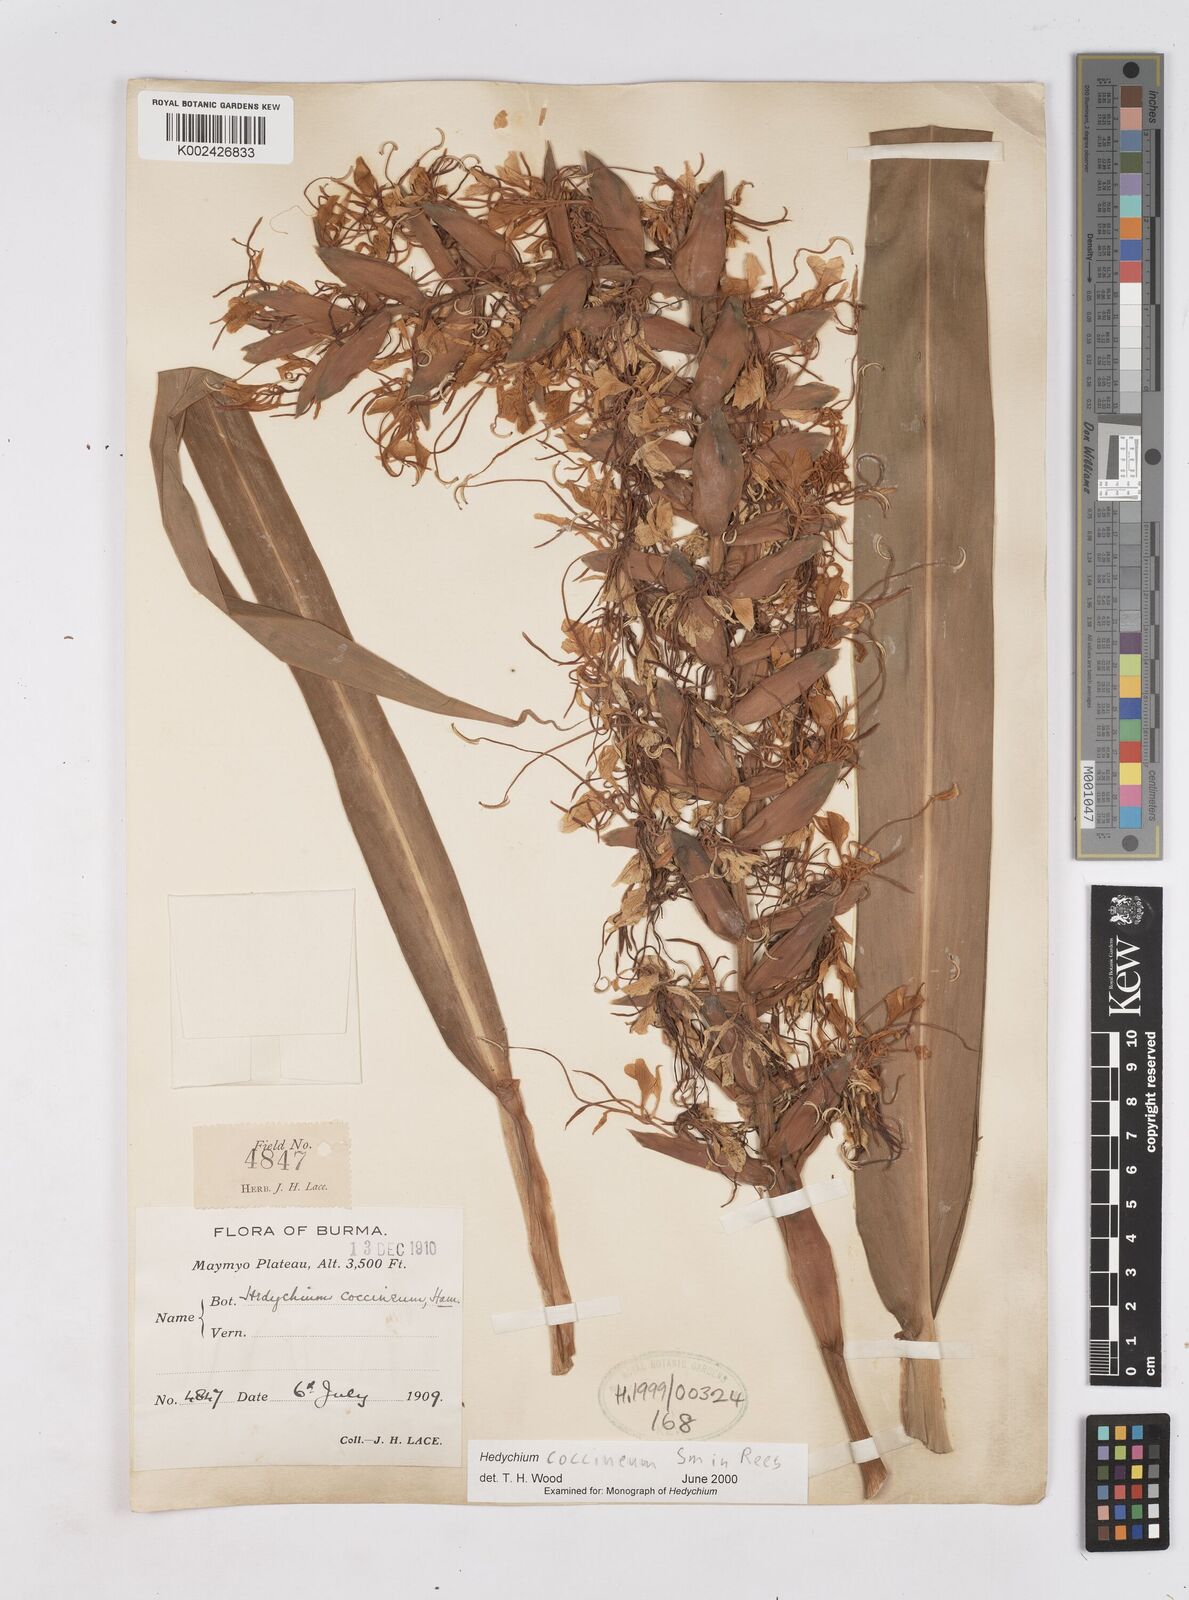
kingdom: Plantae
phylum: Tracheophyta
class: Liliopsida
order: Zingiberales
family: Zingiberaceae
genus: Hedychium
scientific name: Hedychium coccineum
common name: Red ginger-lily
